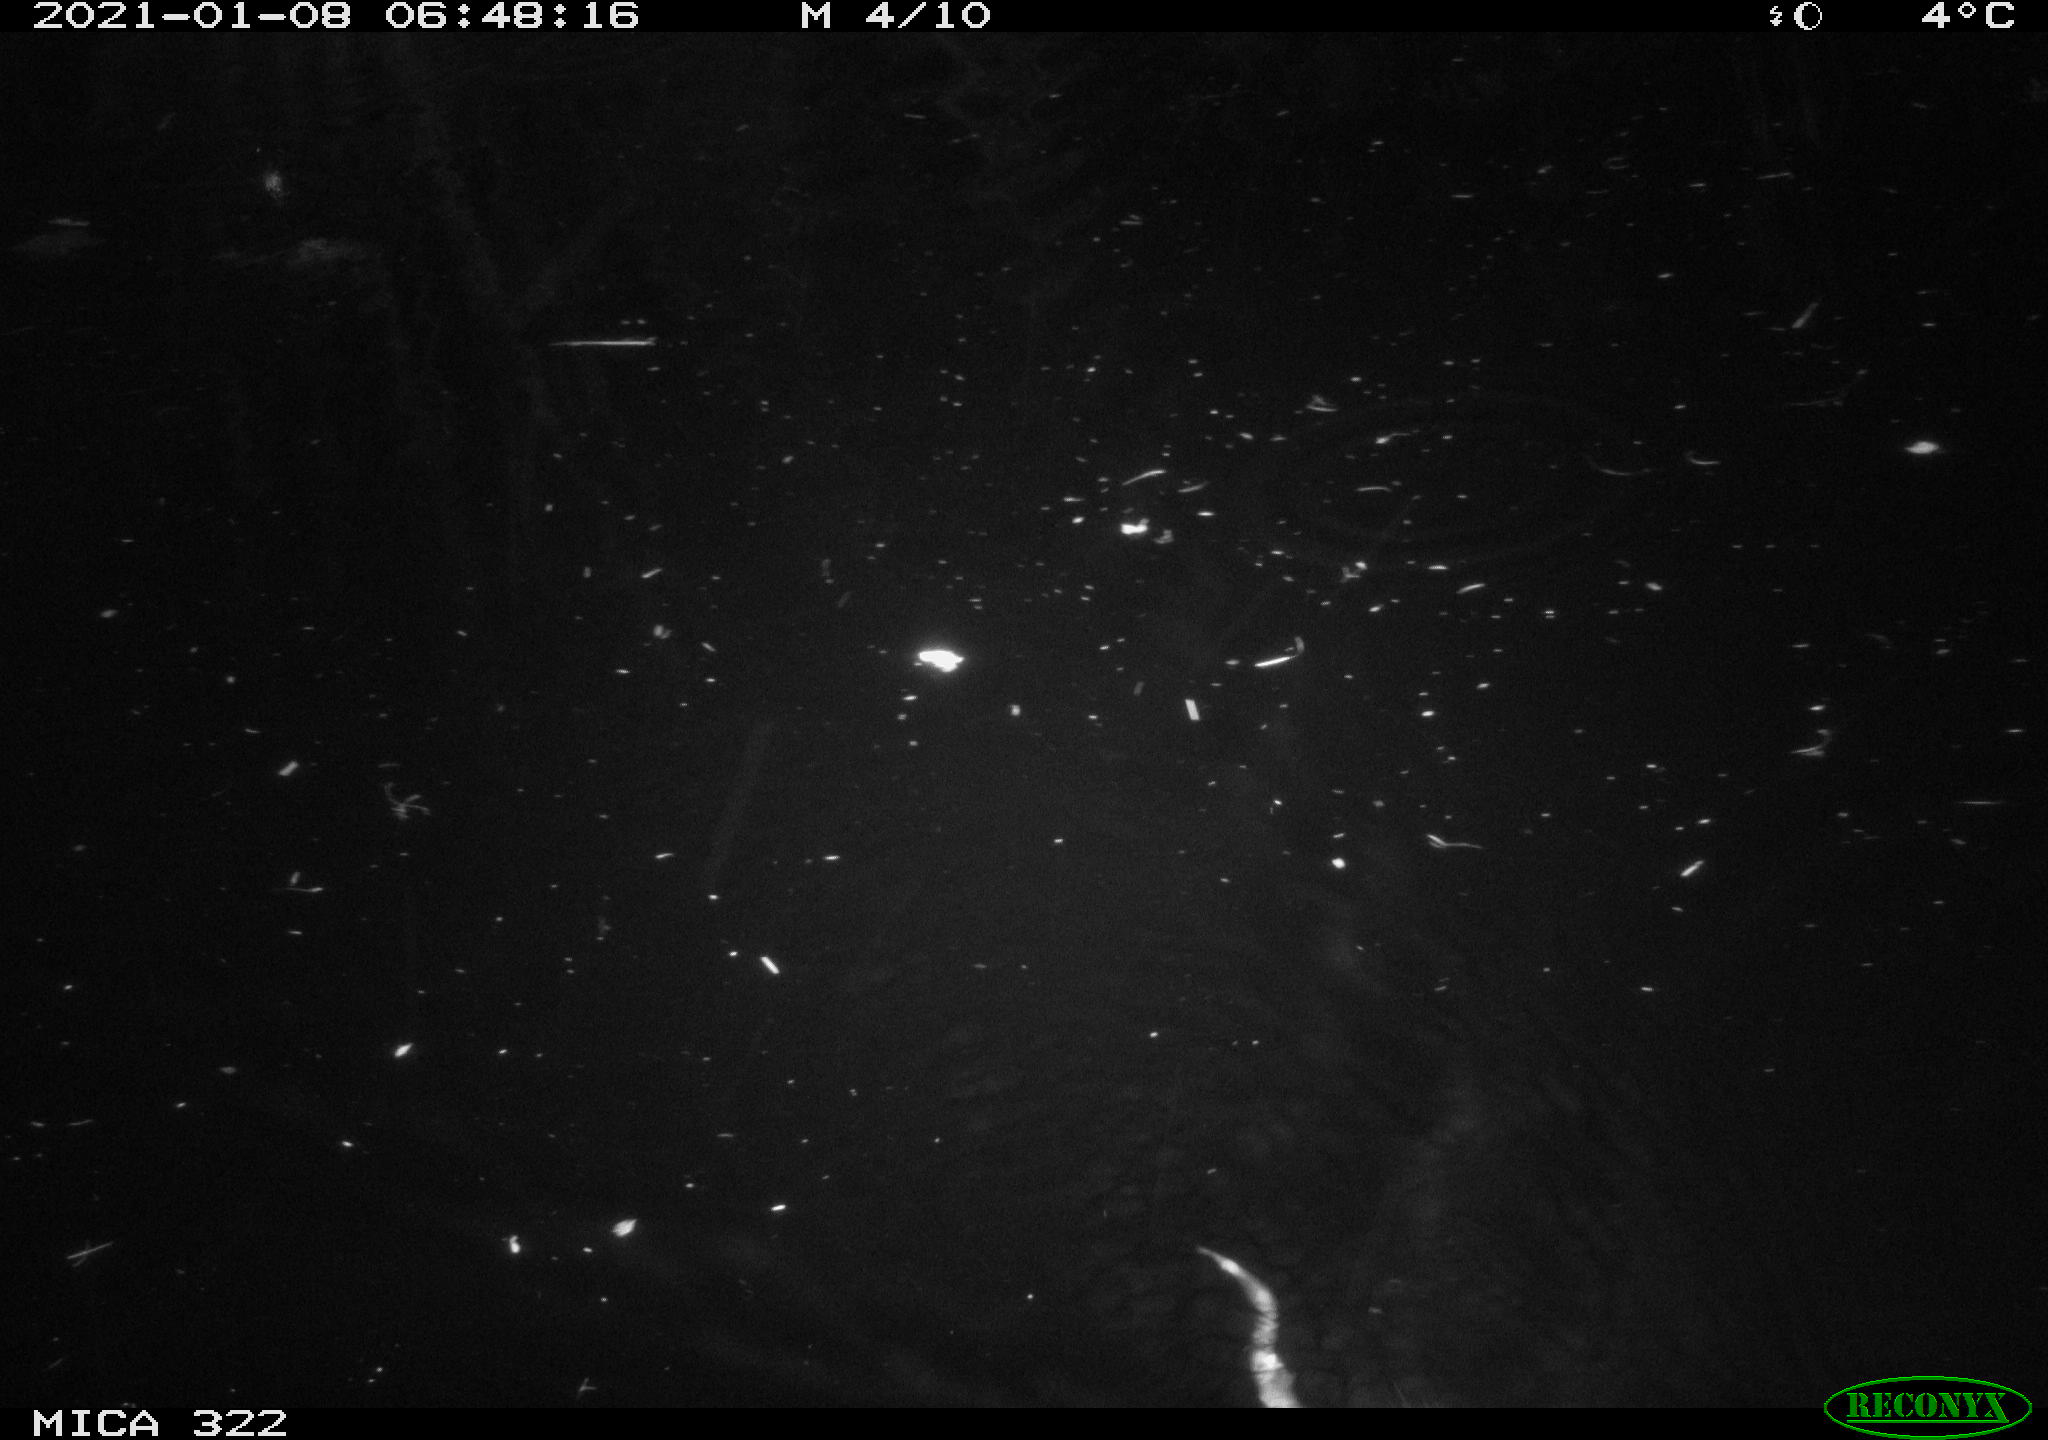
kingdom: Animalia
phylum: Chordata
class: Mammalia
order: Rodentia
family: Muridae
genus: Rattus
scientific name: Rattus norvegicus
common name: Brown rat
